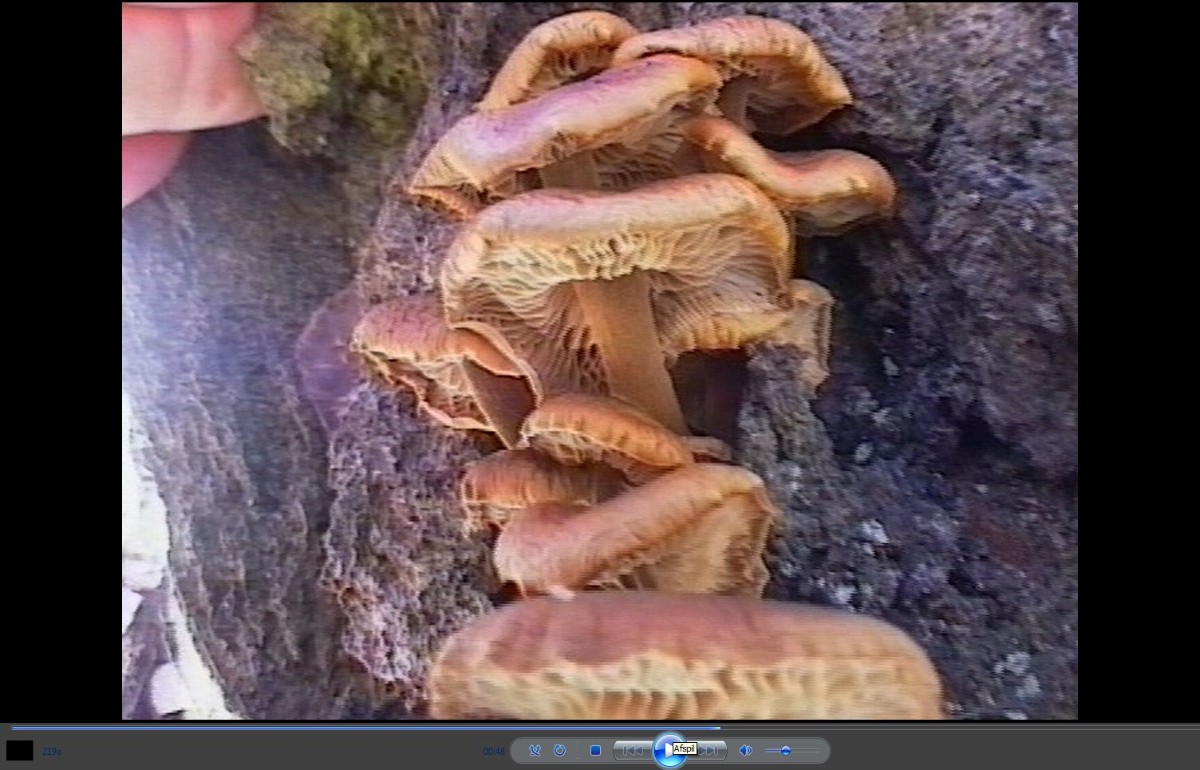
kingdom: Fungi
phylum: Basidiomycota
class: Agaricomycetes
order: Agaricales
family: Physalacriaceae
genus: Flammulina
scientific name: Flammulina velutipes
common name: gul fløjlsfod
